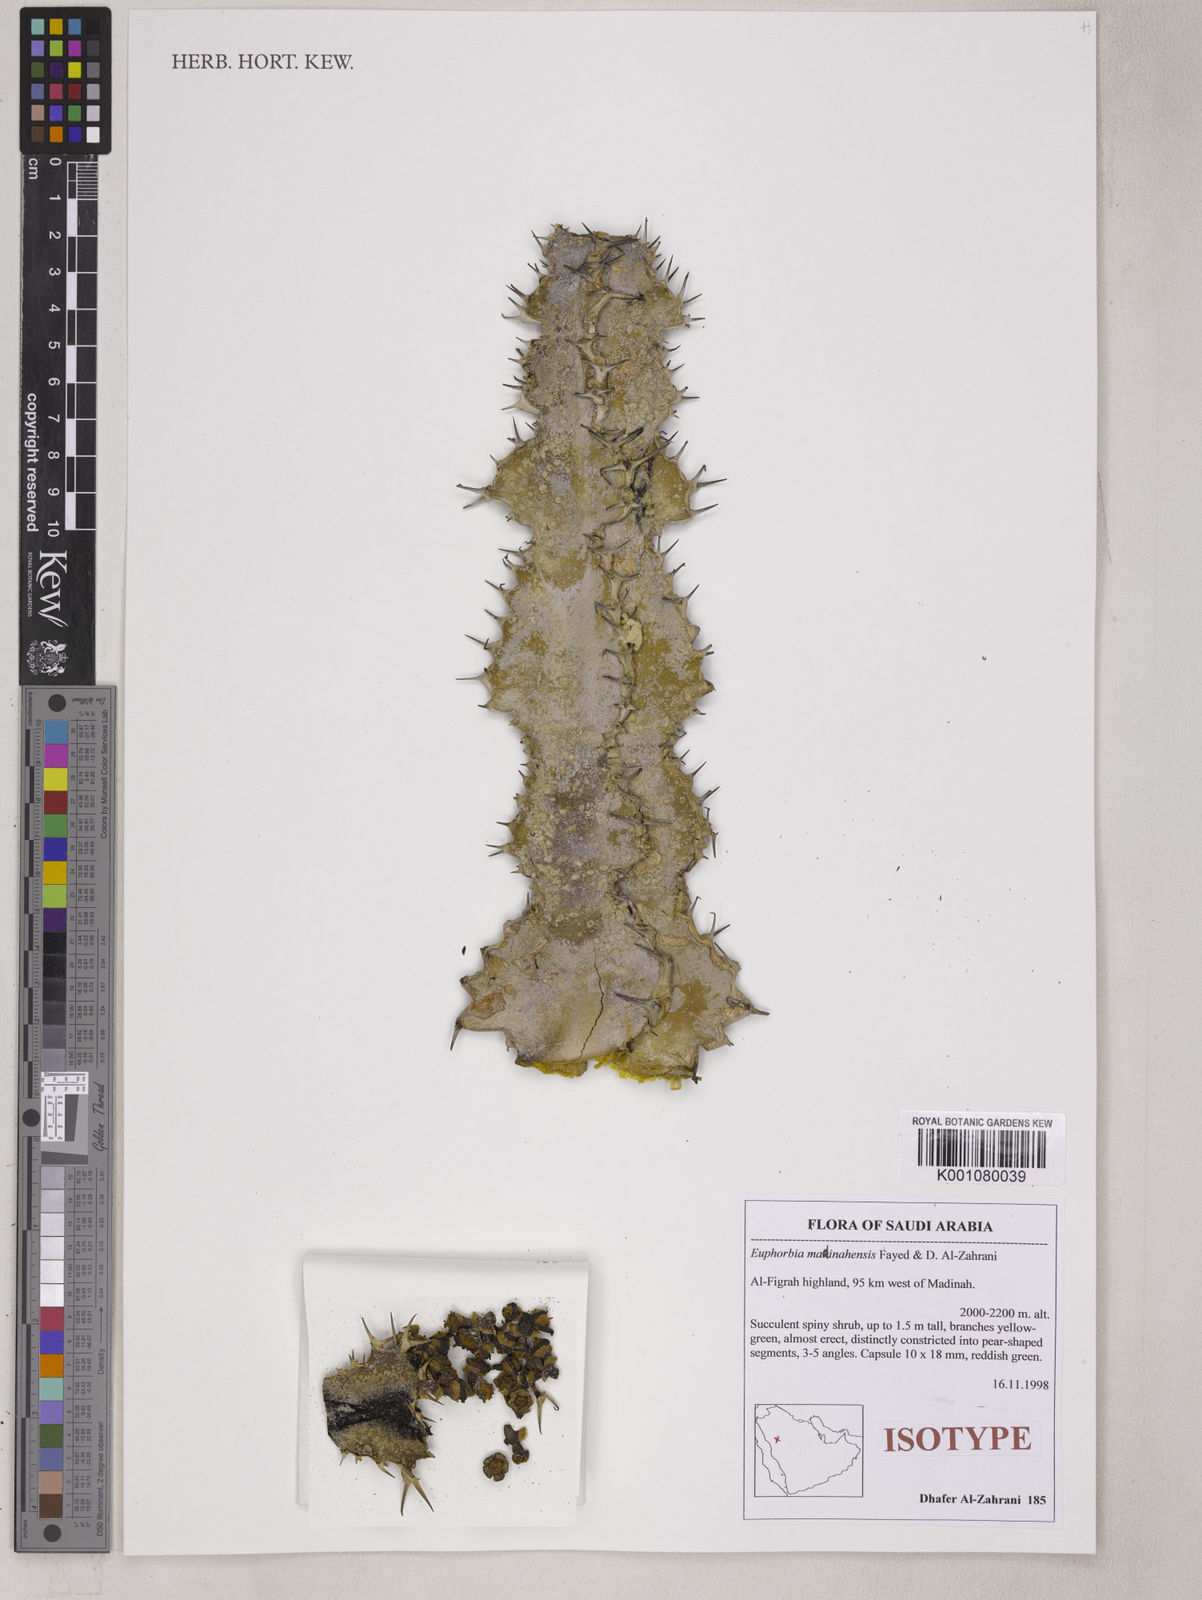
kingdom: Plantae
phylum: Tracheophyta
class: Magnoliopsida
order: Malpighiales
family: Euphorbiaceae
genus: Euphorbia
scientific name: Euphorbia madinahensis
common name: Karath
